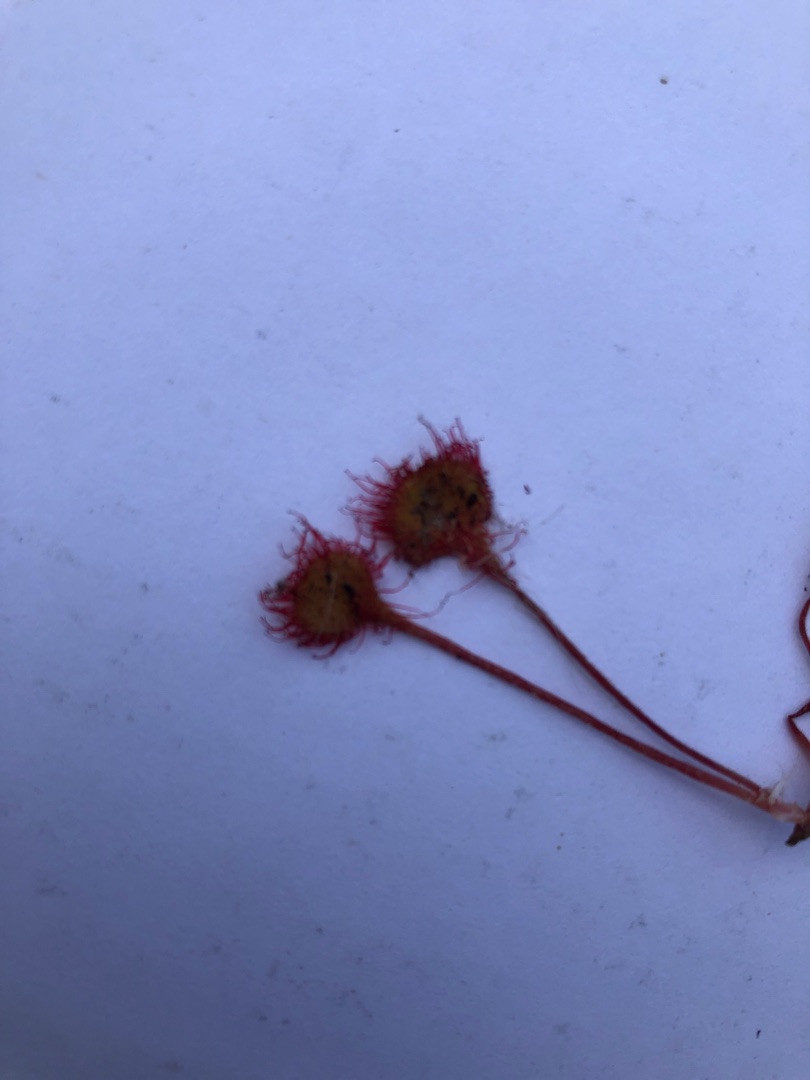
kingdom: Plantae
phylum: Tracheophyta
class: Magnoliopsida
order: Caryophyllales
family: Droseraceae
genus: Drosera
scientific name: Drosera rotundifolia
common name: Rundbladet soldug
